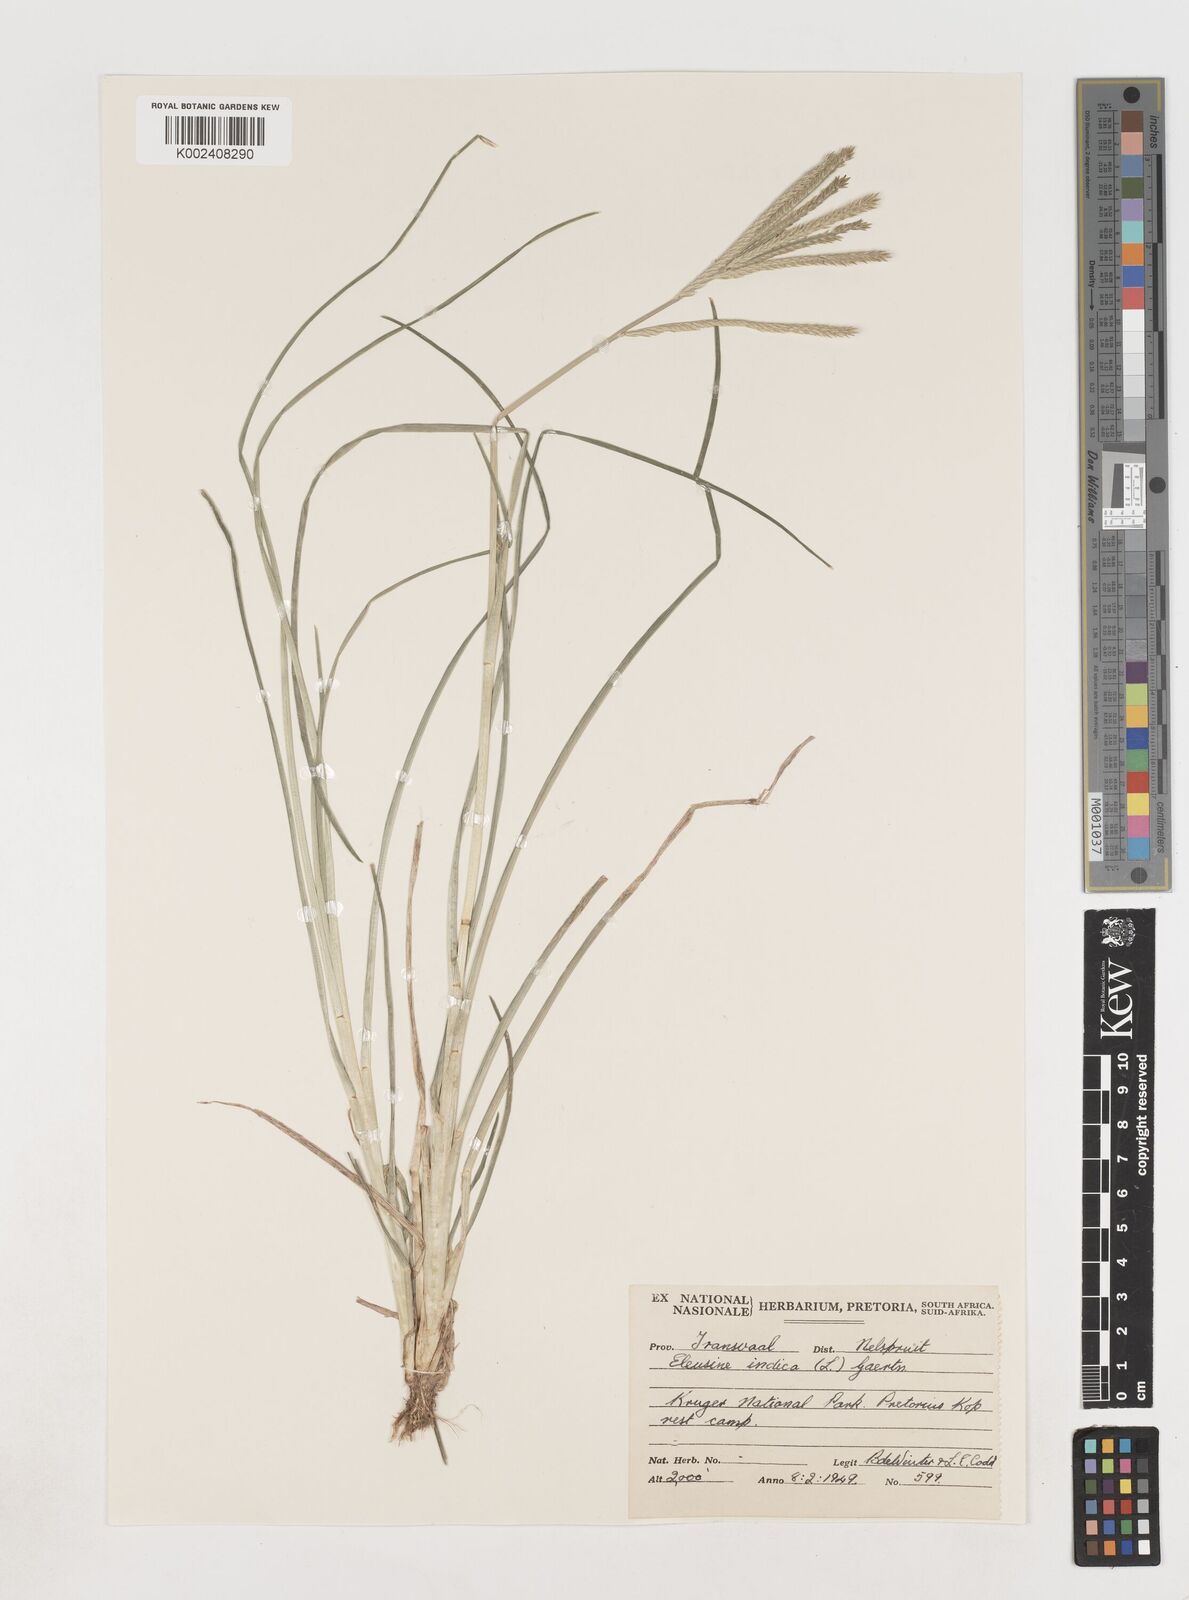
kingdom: Plantae
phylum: Tracheophyta
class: Liliopsida
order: Poales
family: Poaceae
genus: Eleusine
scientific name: Eleusine africana
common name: Wild african finger millet
